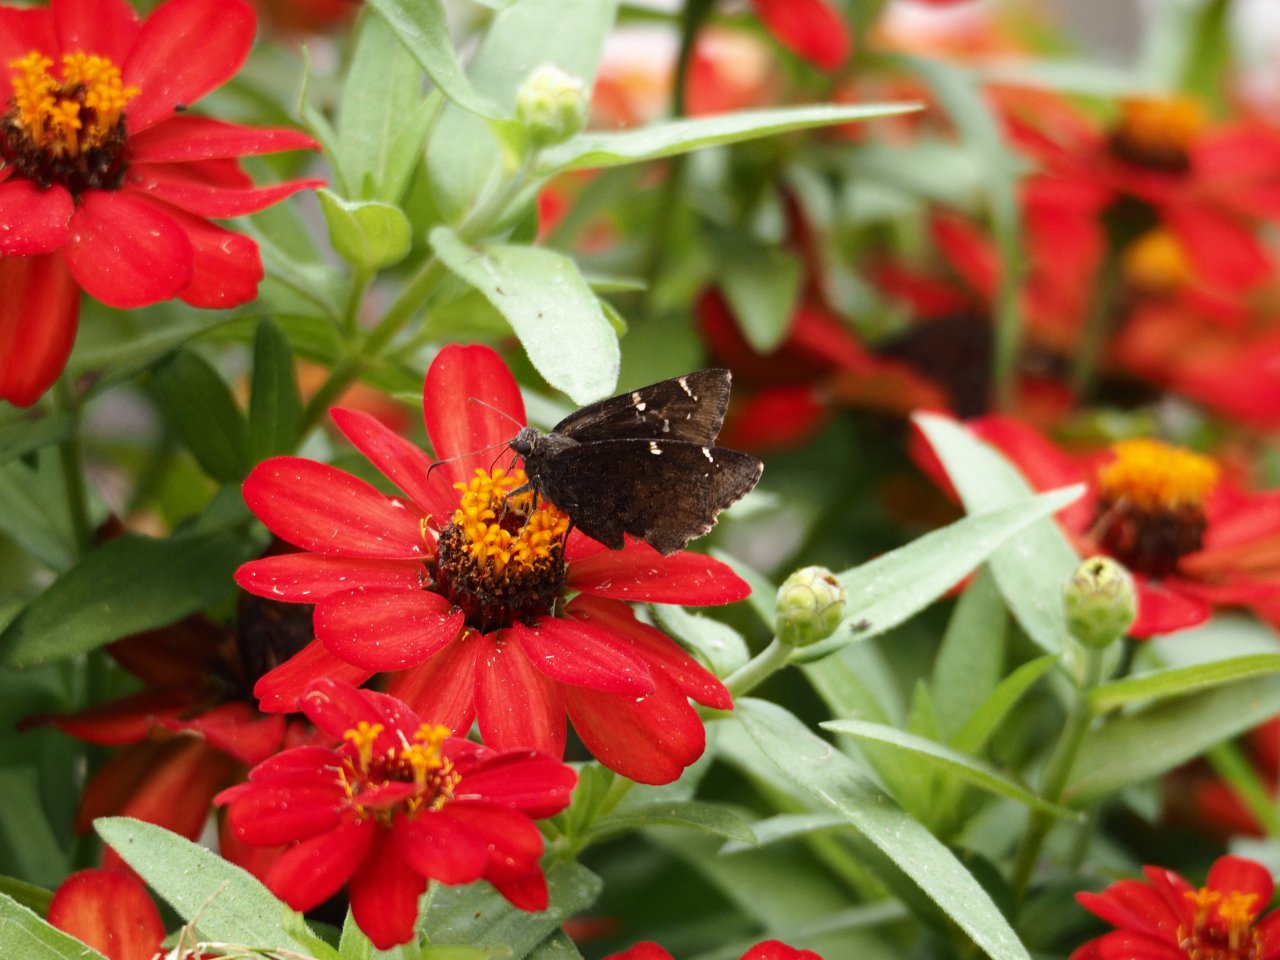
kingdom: Animalia
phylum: Arthropoda
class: Insecta
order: Lepidoptera
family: Hesperiidae
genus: Thorybes
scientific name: Thorybes mexicana
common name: Confused Cloudywing
